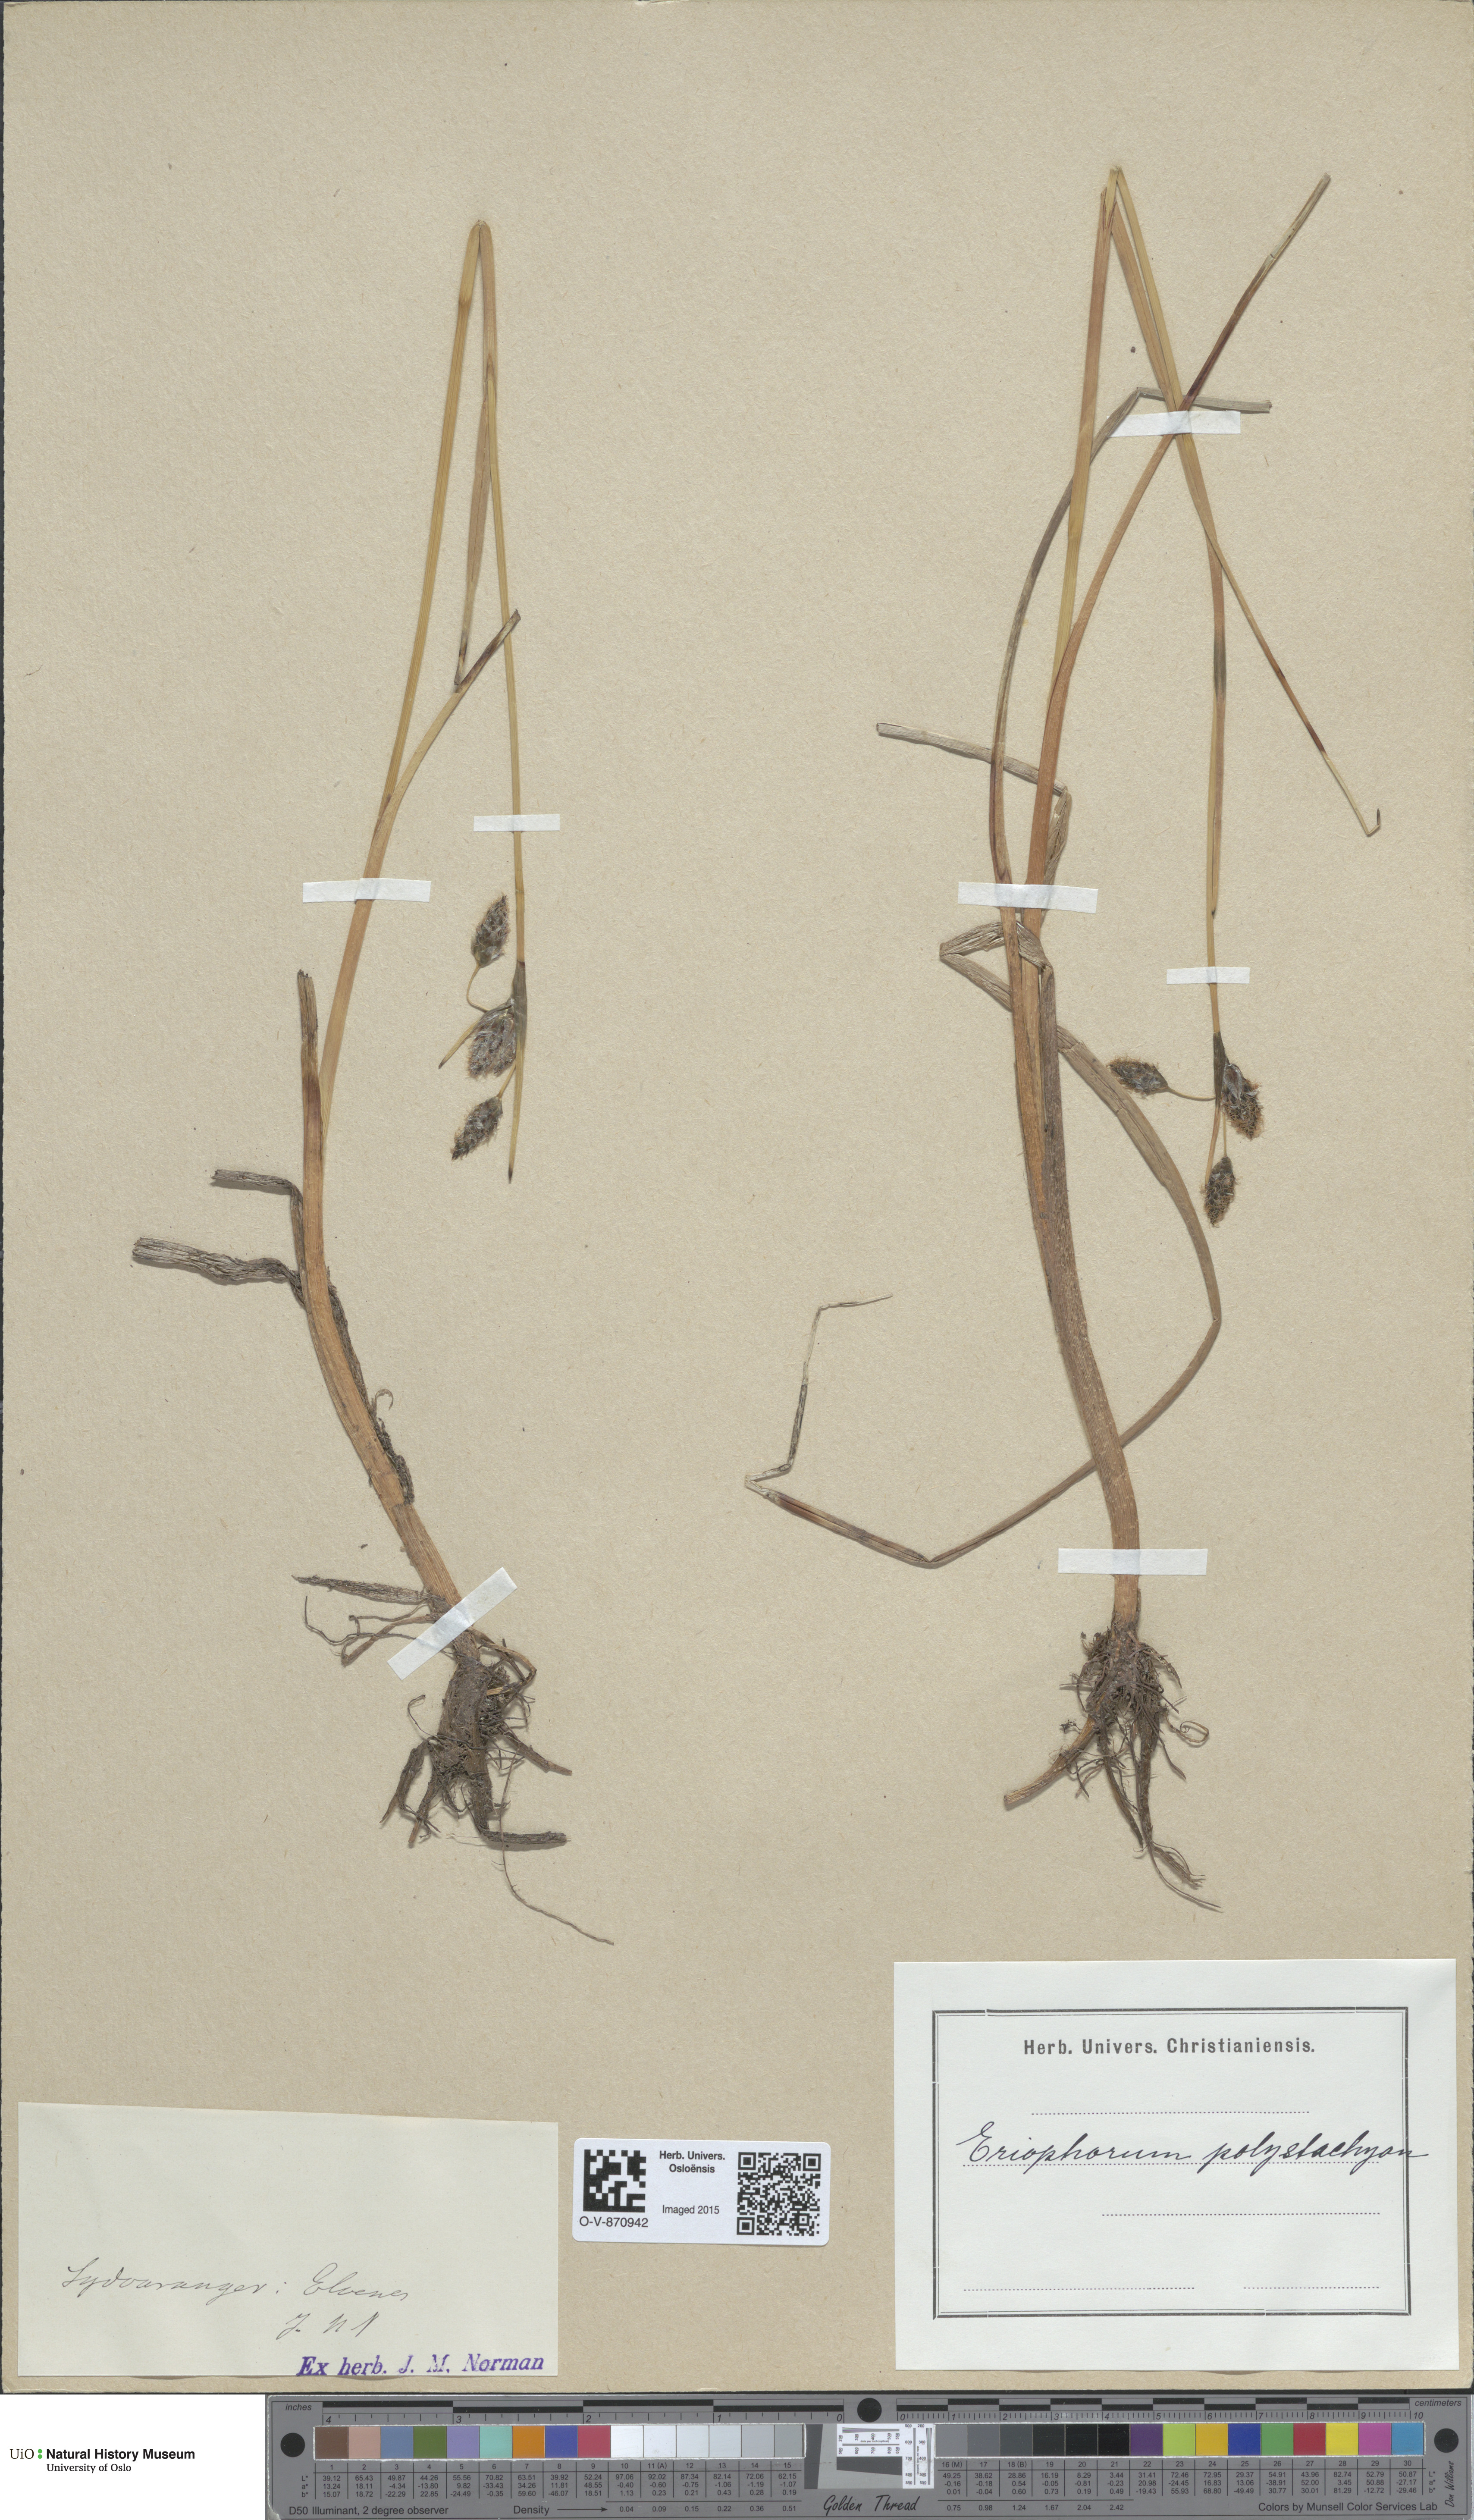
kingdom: Plantae
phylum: Tracheophyta
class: Liliopsida
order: Poales
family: Cyperaceae
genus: Eriophorum
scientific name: Eriophorum angustifolium
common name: Common cottongrass
